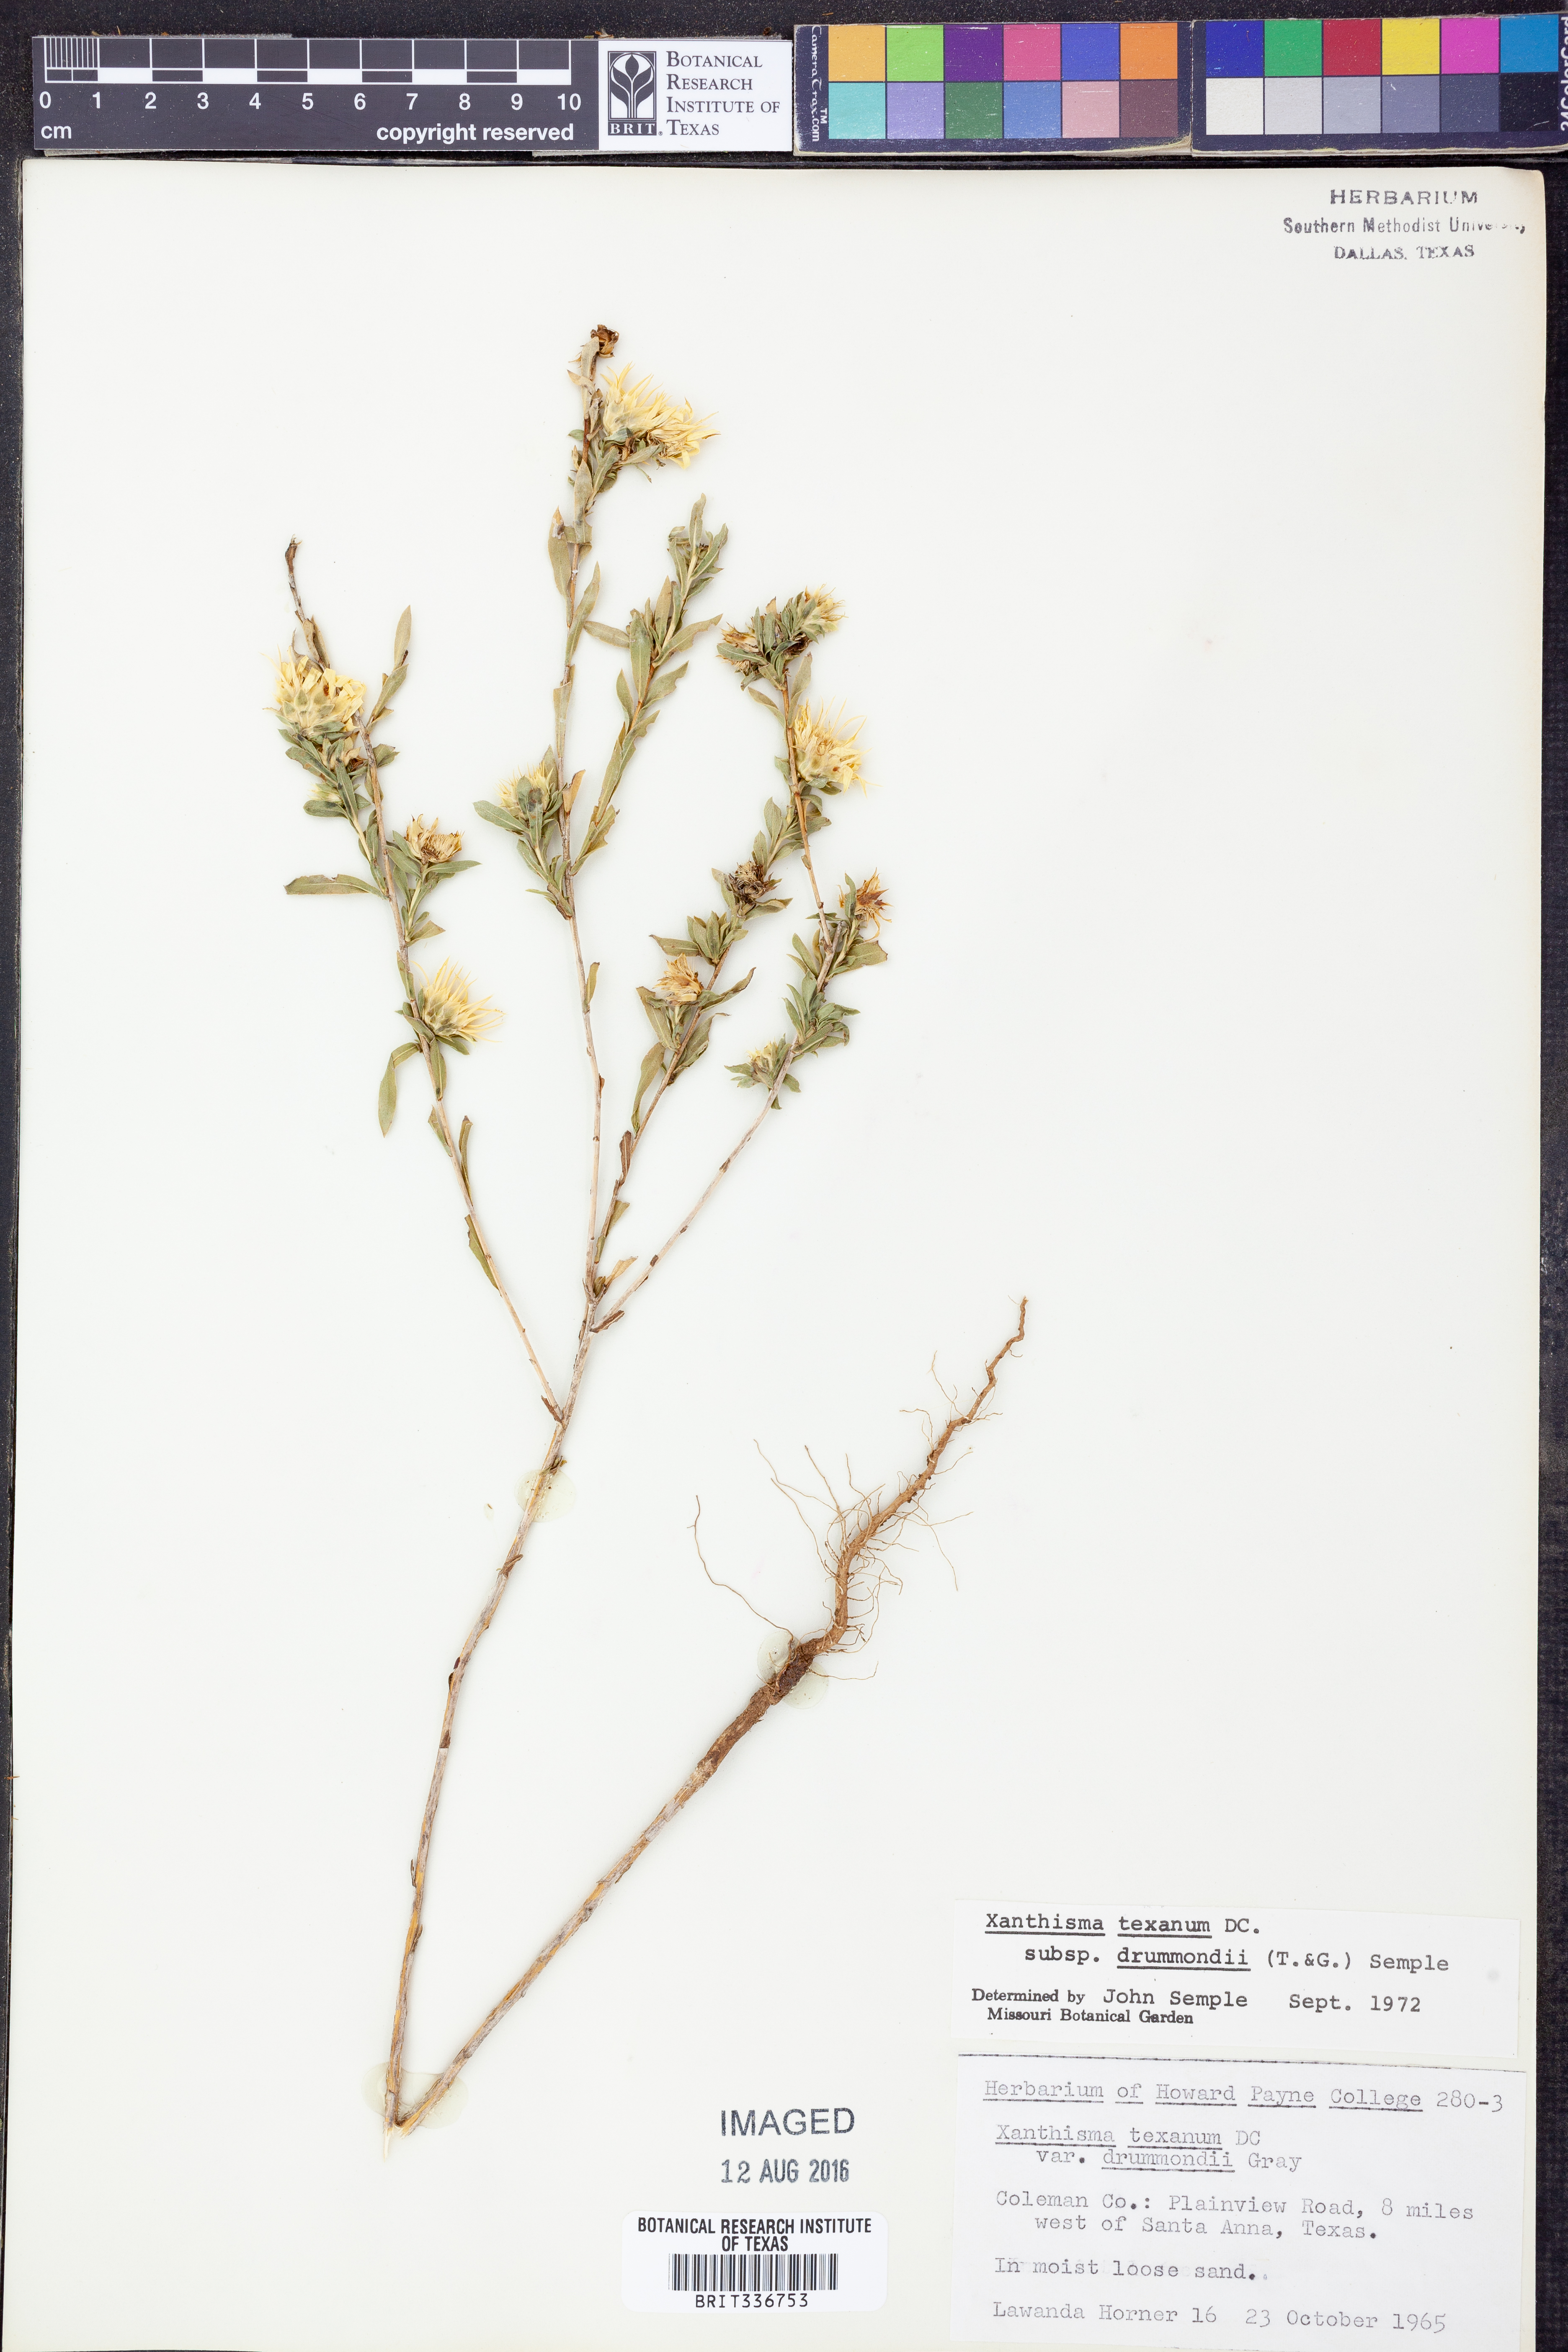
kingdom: Plantae
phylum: Tracheophyta
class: Magnoliopsida
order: Asterales
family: Asteraceae
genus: Xanthisma
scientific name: Xanthisma texanum
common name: Texas sleepy daisy
